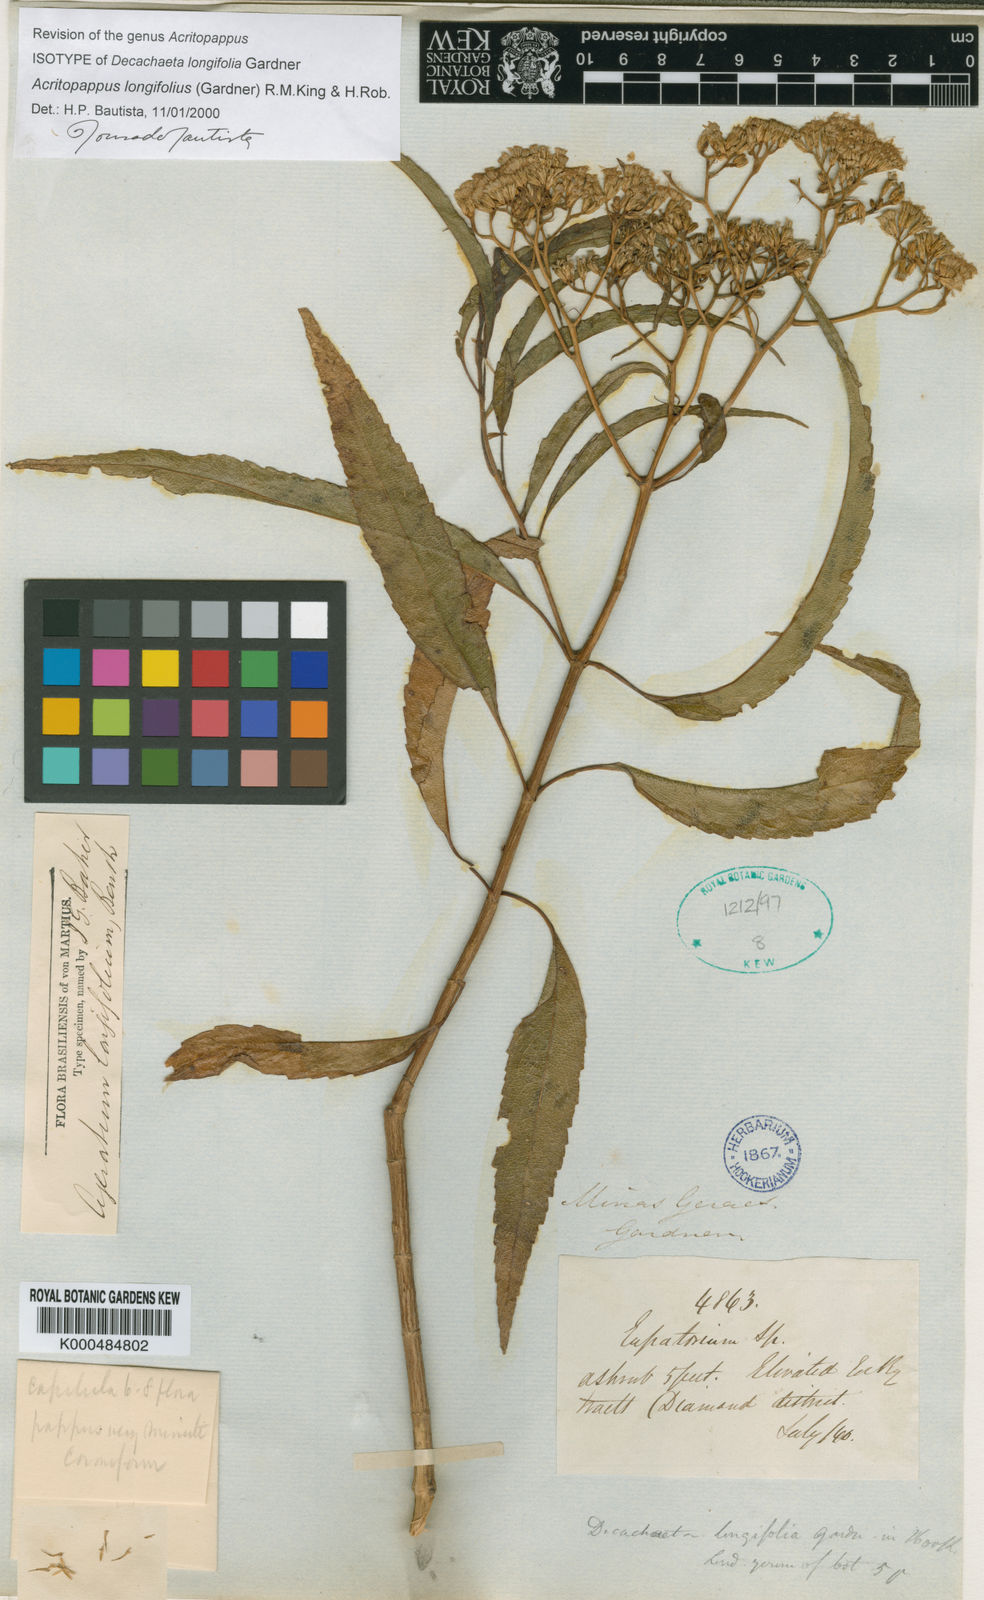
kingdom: Plantae
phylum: Tracheophyta
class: Magnoliopsida
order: Asterales
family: Asteraceae
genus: Acritopappus
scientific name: Acritopappus longifolius
